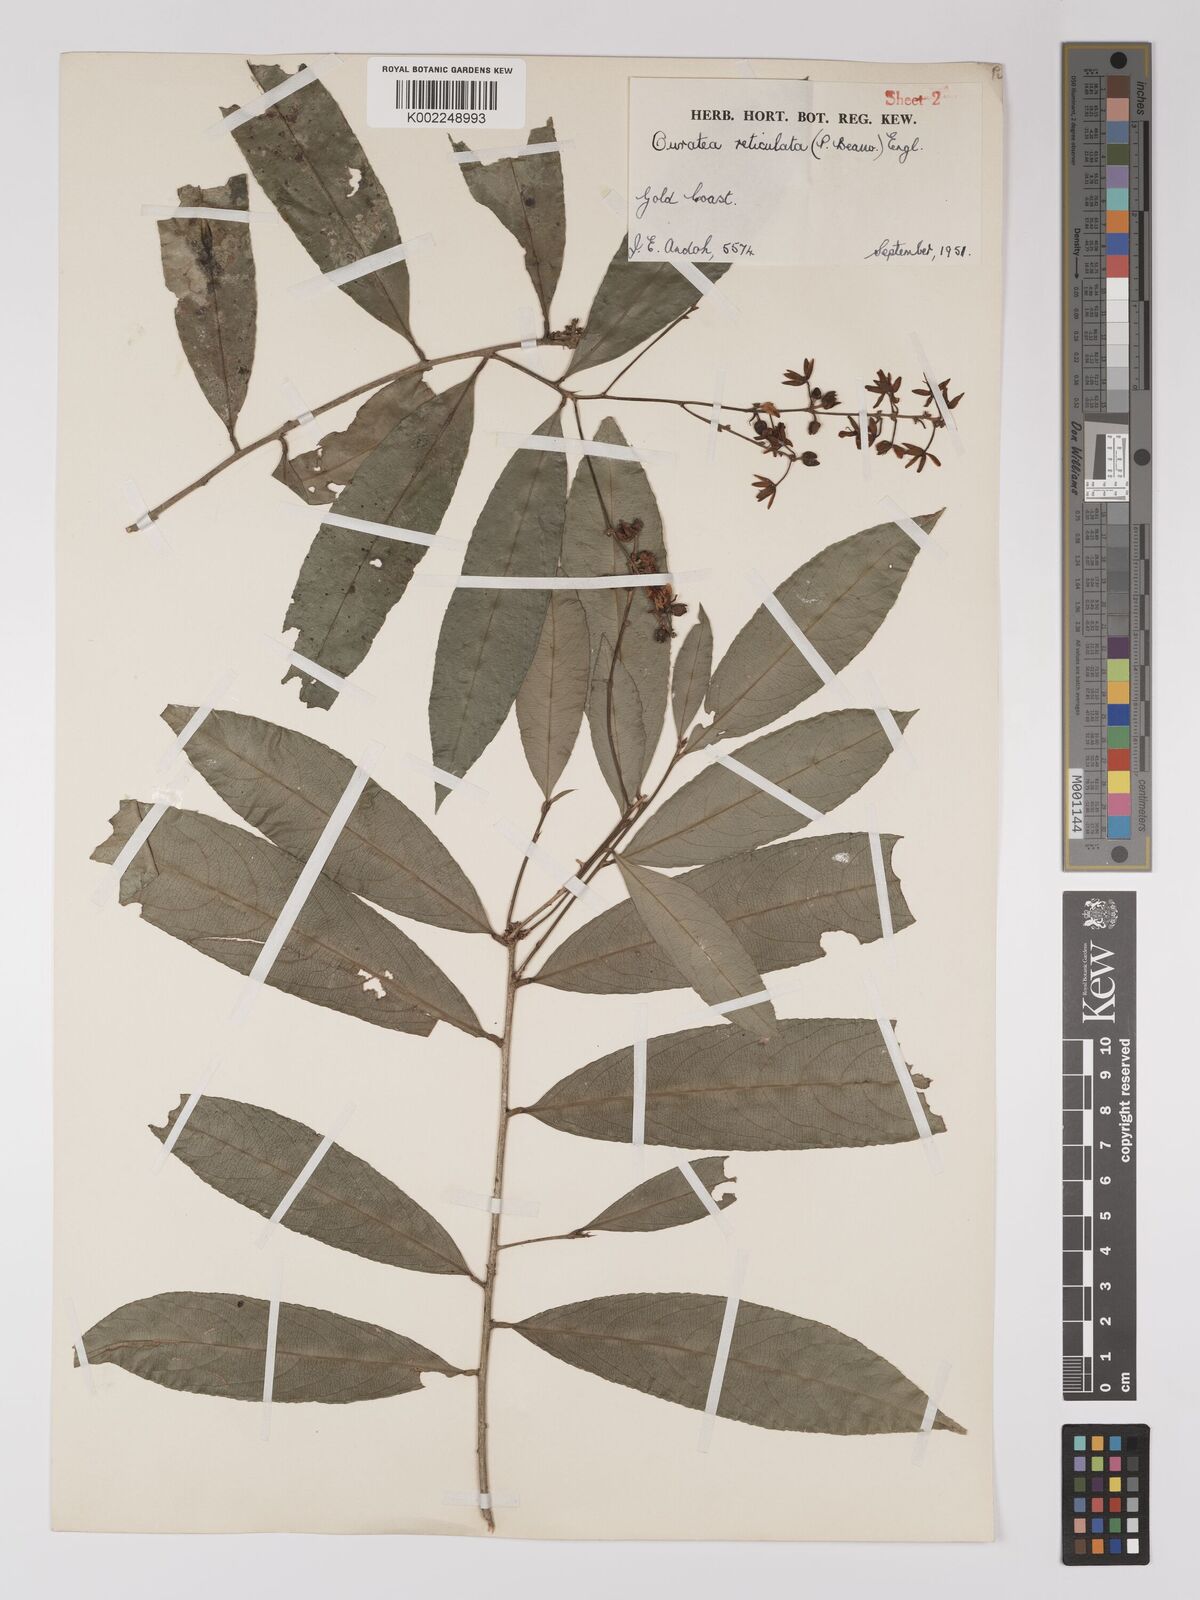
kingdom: Plantae
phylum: Tracheophyta
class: Magnoliopsida
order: Malpighiales
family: Ochnaceae
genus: Campylospermum
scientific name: Campylospermum reticulatum
